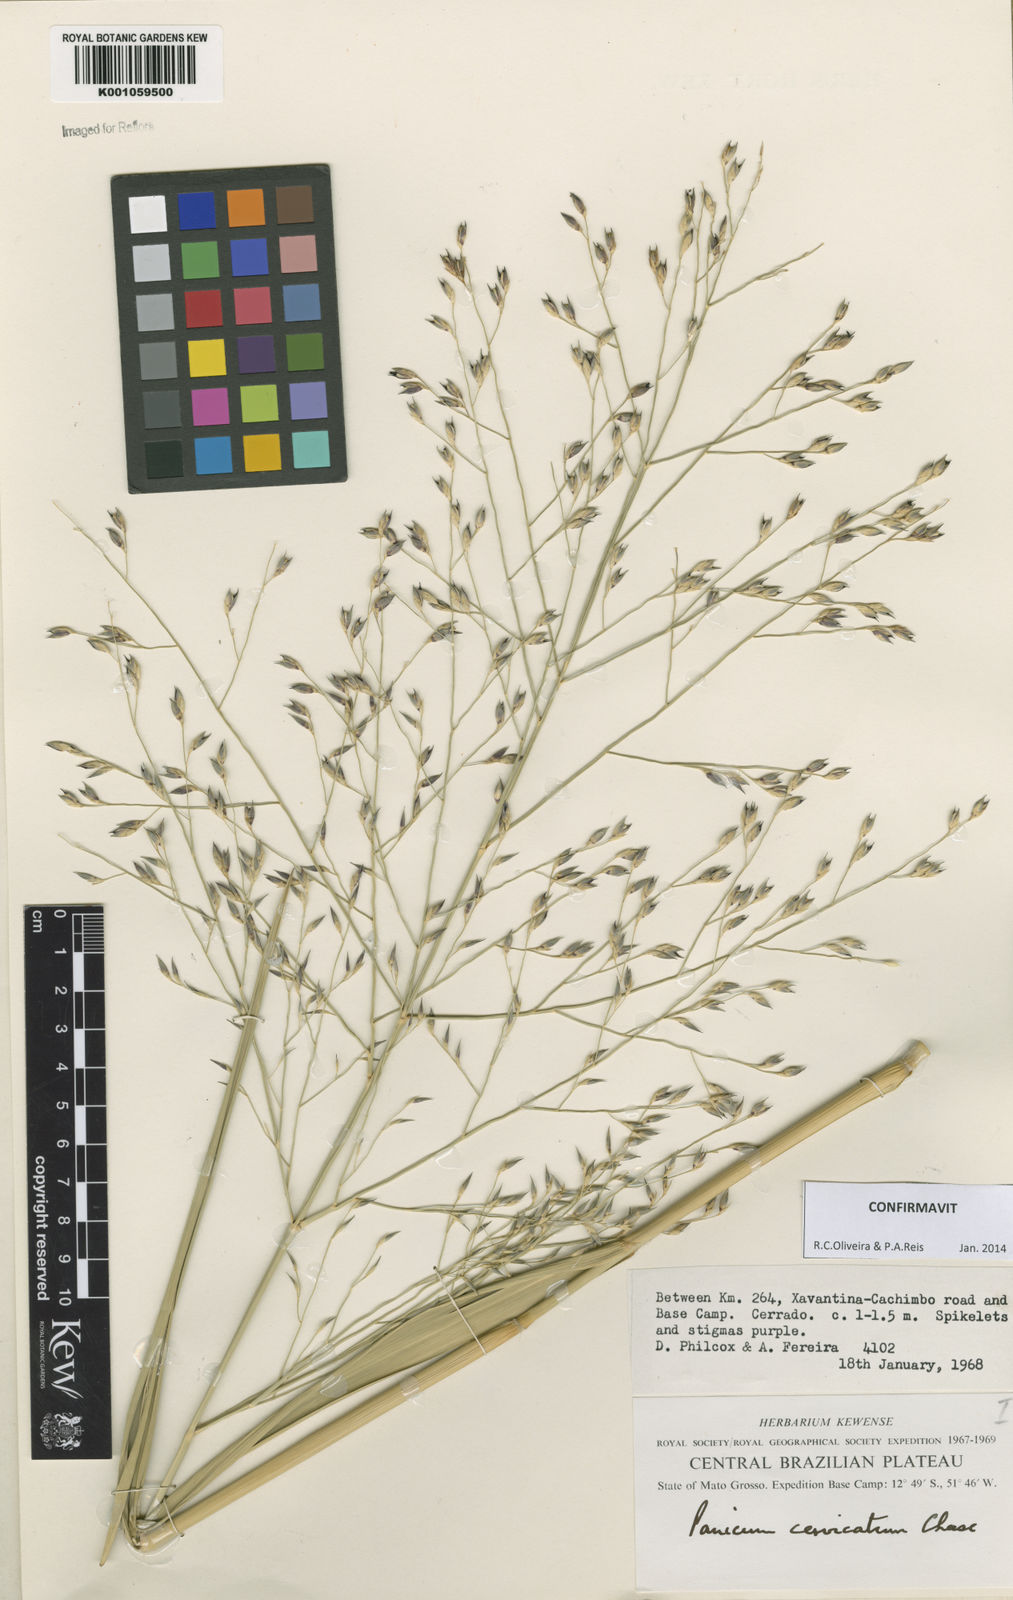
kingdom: Plantae
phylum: Tracheophyta
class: Liliopsida
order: Poales
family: Poaceae
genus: Panicum
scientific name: Panicum cervicatum
